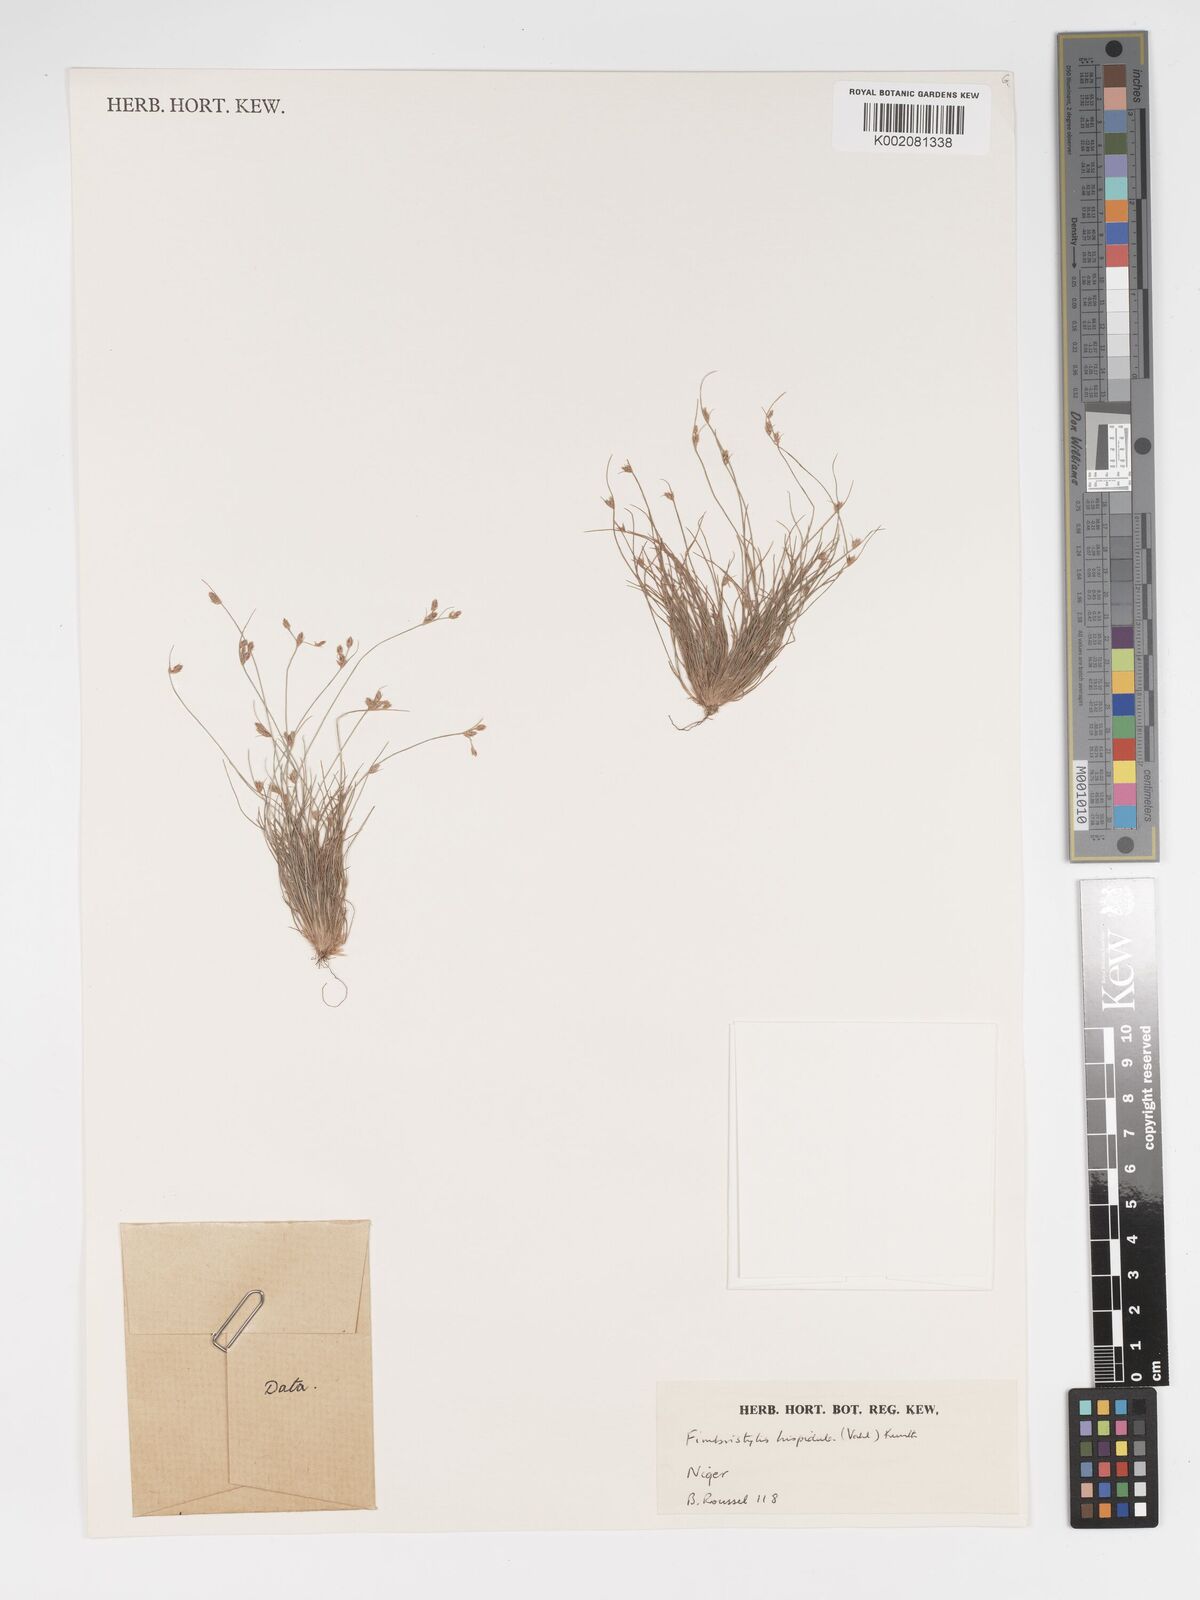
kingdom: Plantae
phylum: Tracheophyta
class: Liliopsida
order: Poales
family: Cyperaceae
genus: Bulbostylis
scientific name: Bulbostylis hispidula
